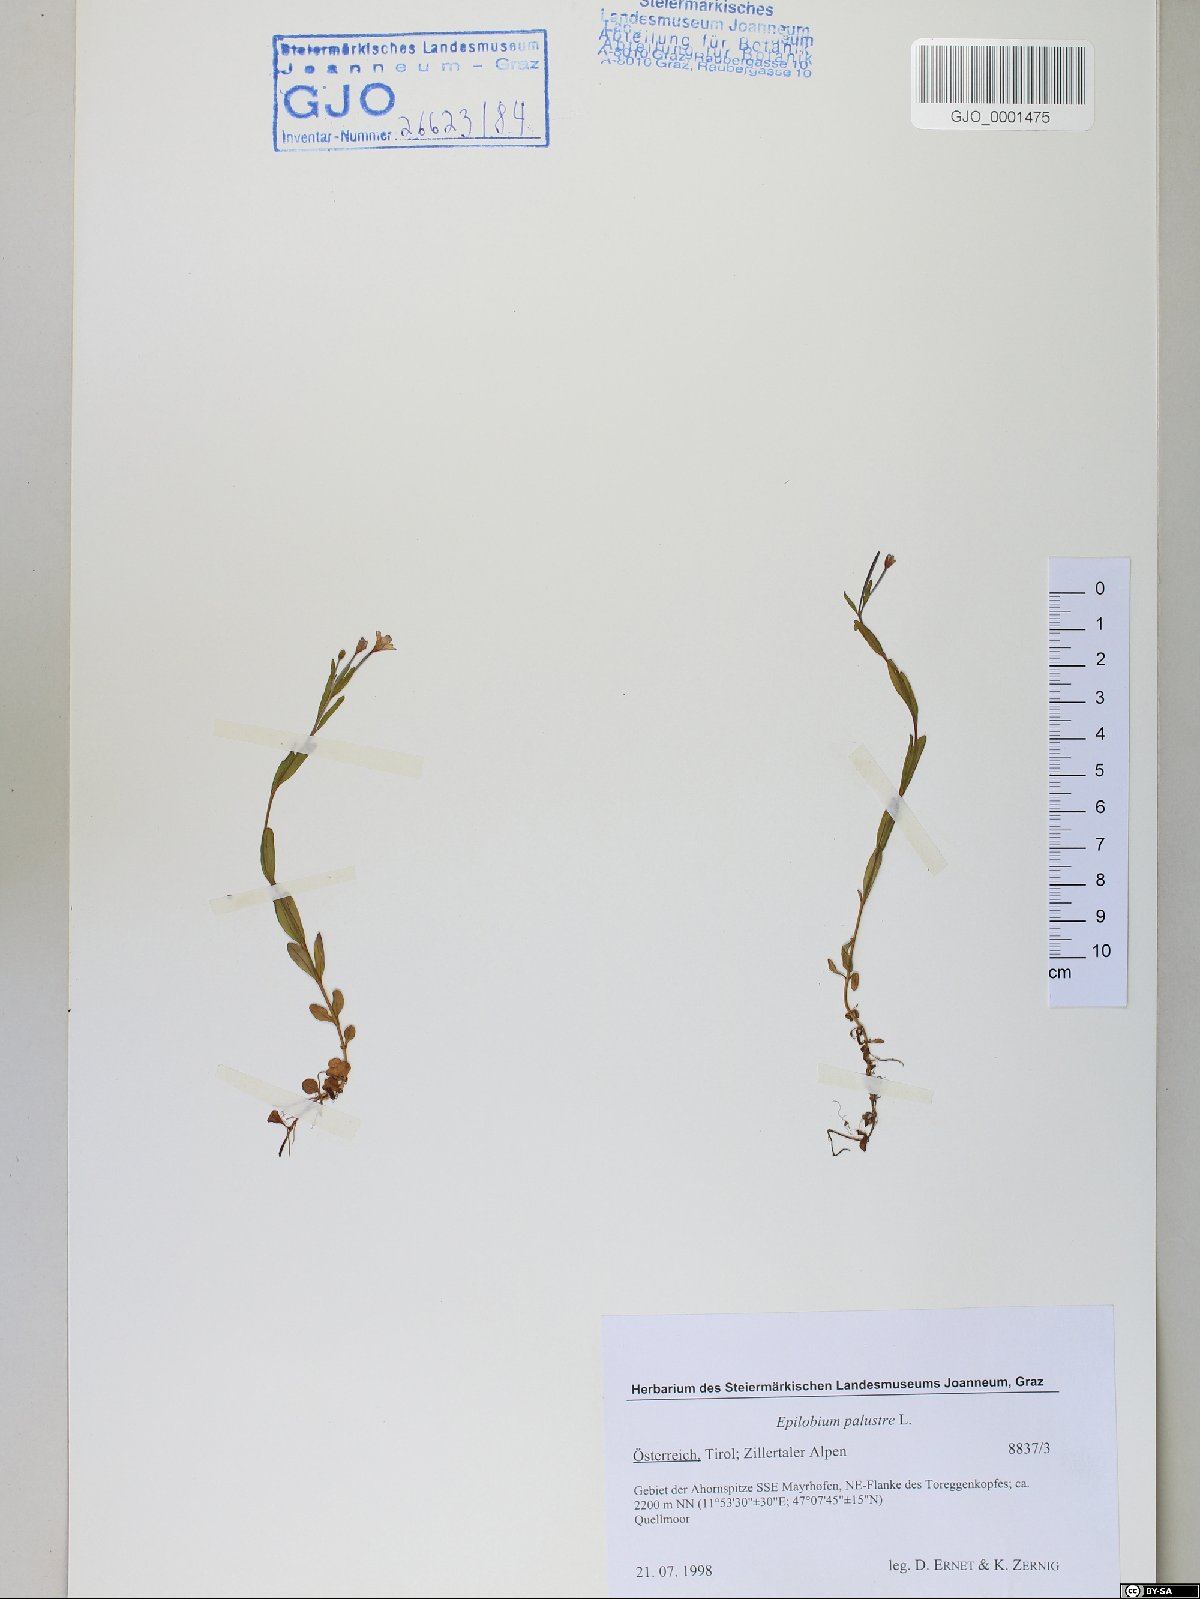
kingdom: Plantae
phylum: Tracheophyta
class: Magnoliopsida
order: Myrtales
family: Onagraceae
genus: Epilobium
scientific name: Epilobium palustre
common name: Marsh willowherb
